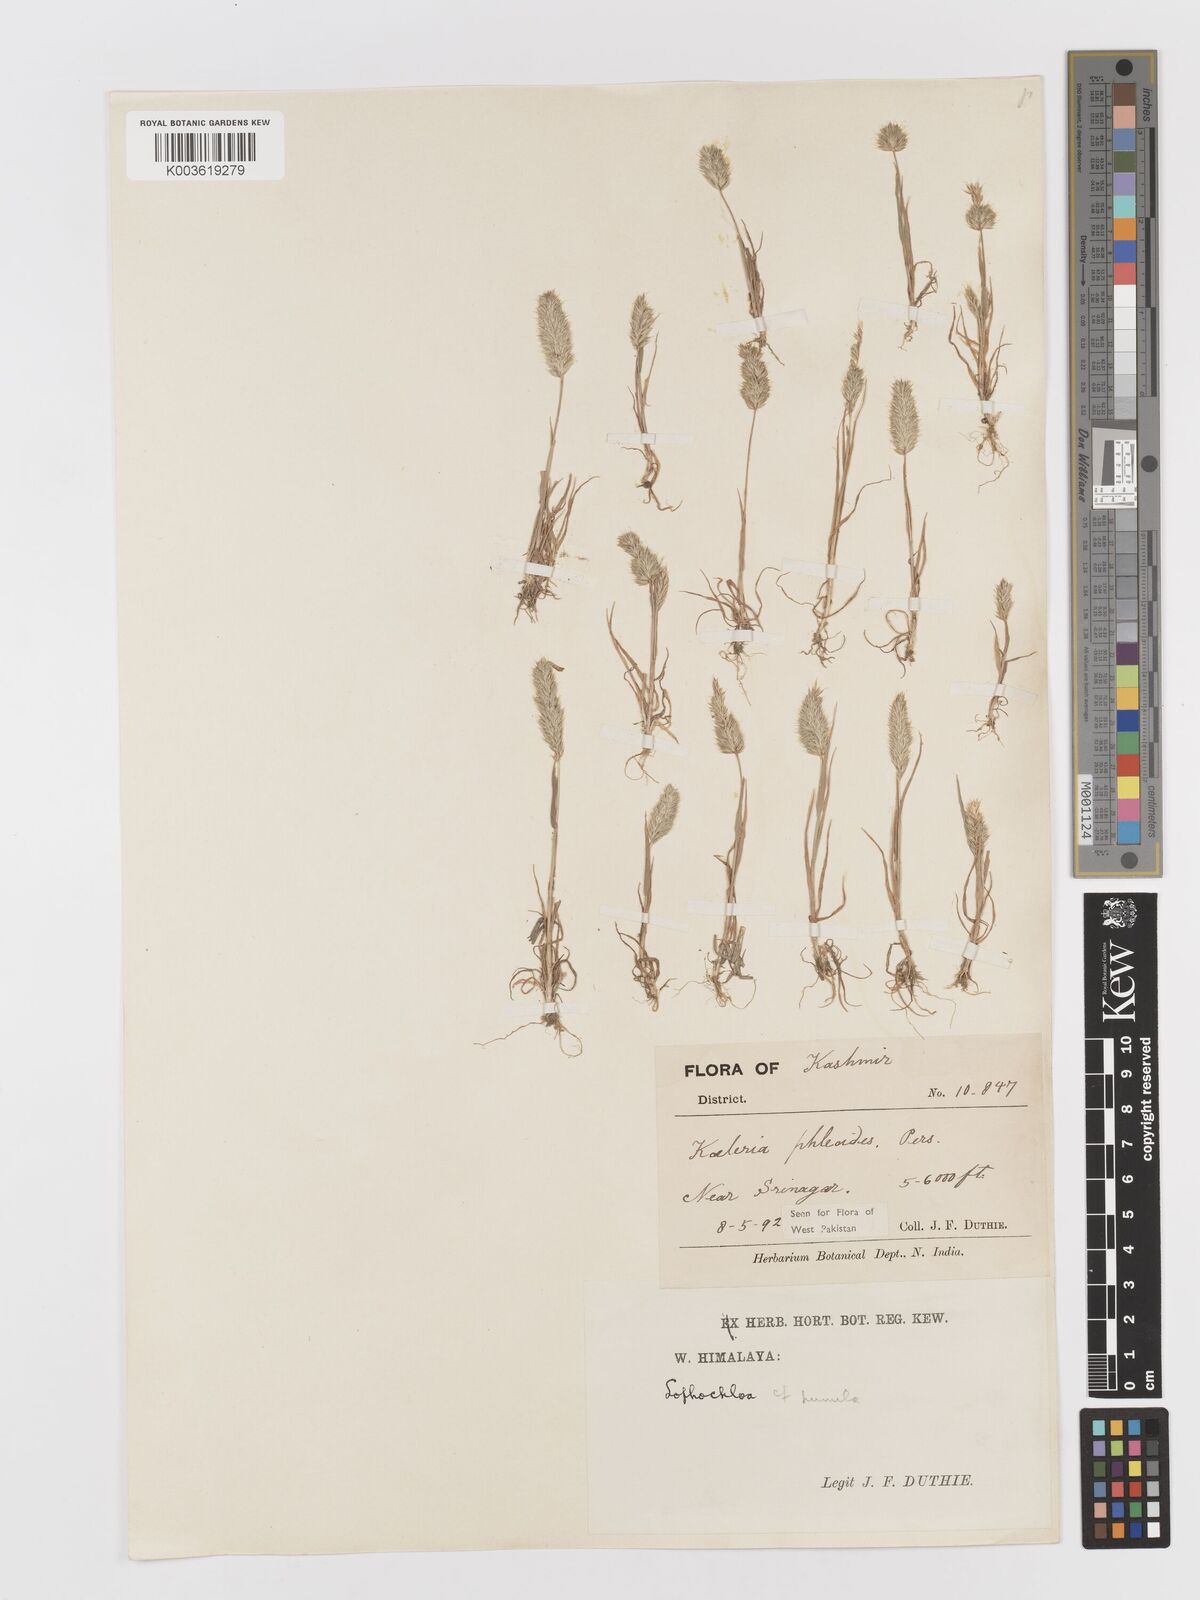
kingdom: Plantae
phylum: Tracheophyta
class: Liliopsida
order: Poales
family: Poaceae
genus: Rostraria
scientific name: Rostraria cristata
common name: Mediterranean hair-grass
